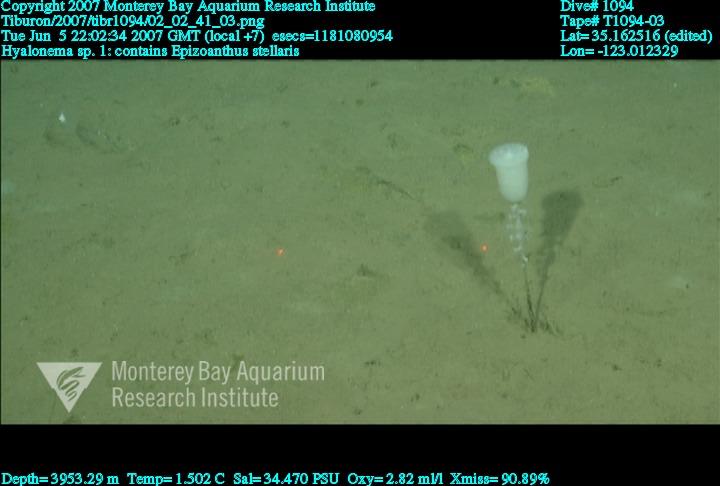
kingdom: Animalia
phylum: Porifera
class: Hexactinellida
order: Amphidiscosida
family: Hyalonematidae
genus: Hyalonema
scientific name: Hyalonema
